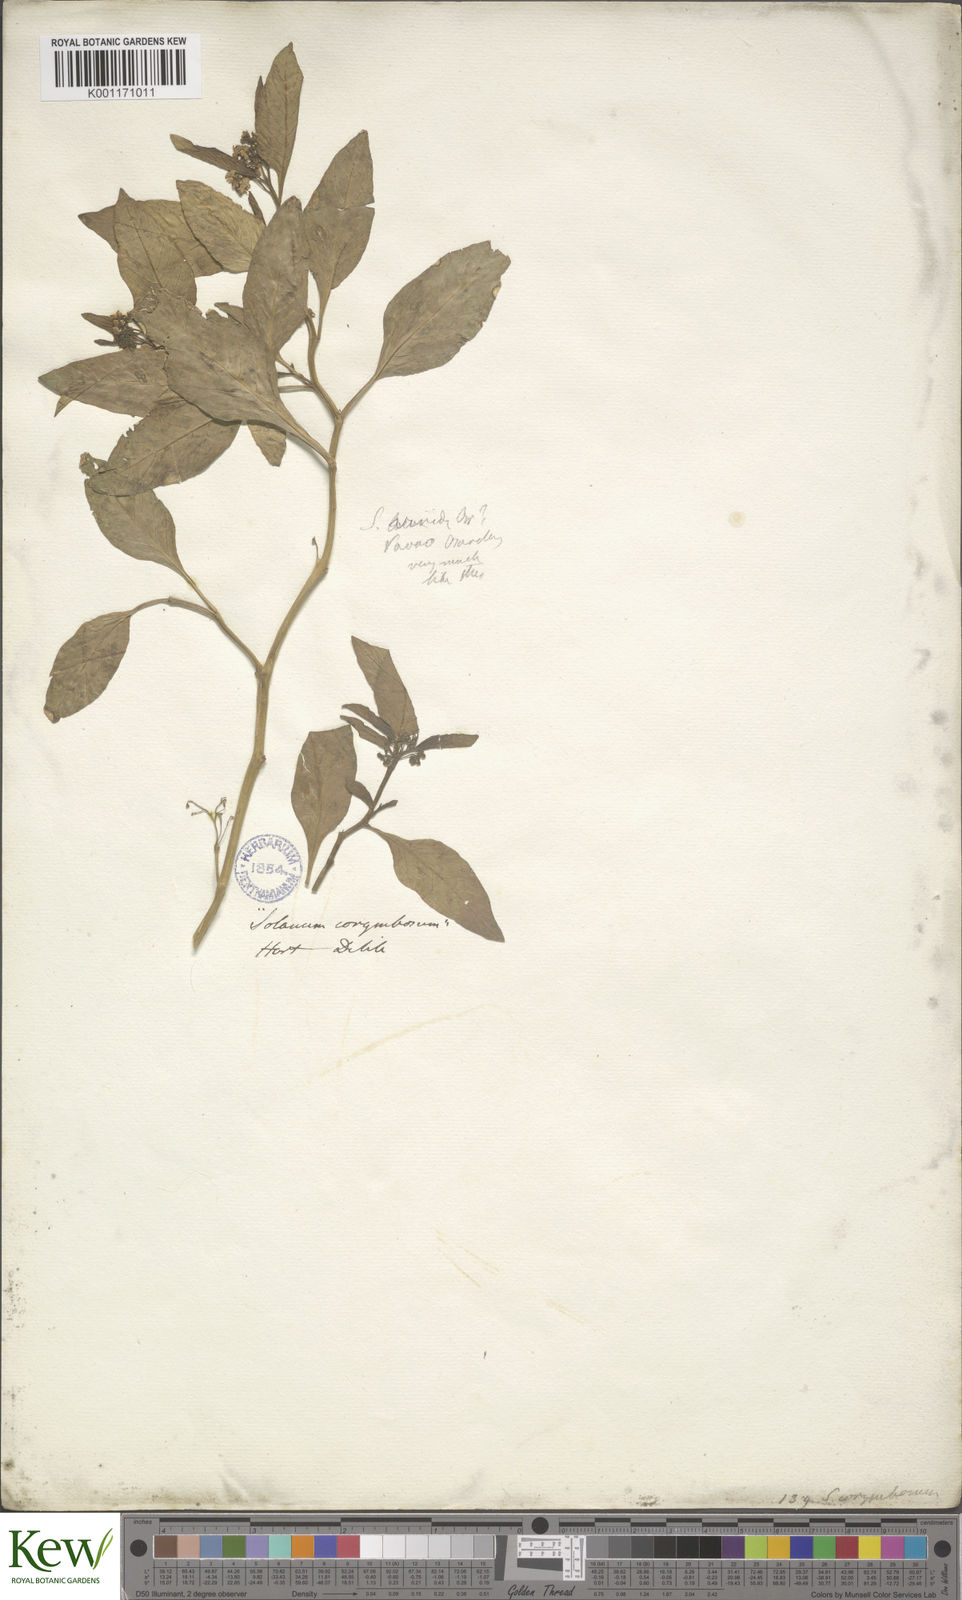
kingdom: Plantae
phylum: Tracheophyta
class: Magnoliopsida
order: Solanales
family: Solanaceae
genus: Solanum
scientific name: Solanum
